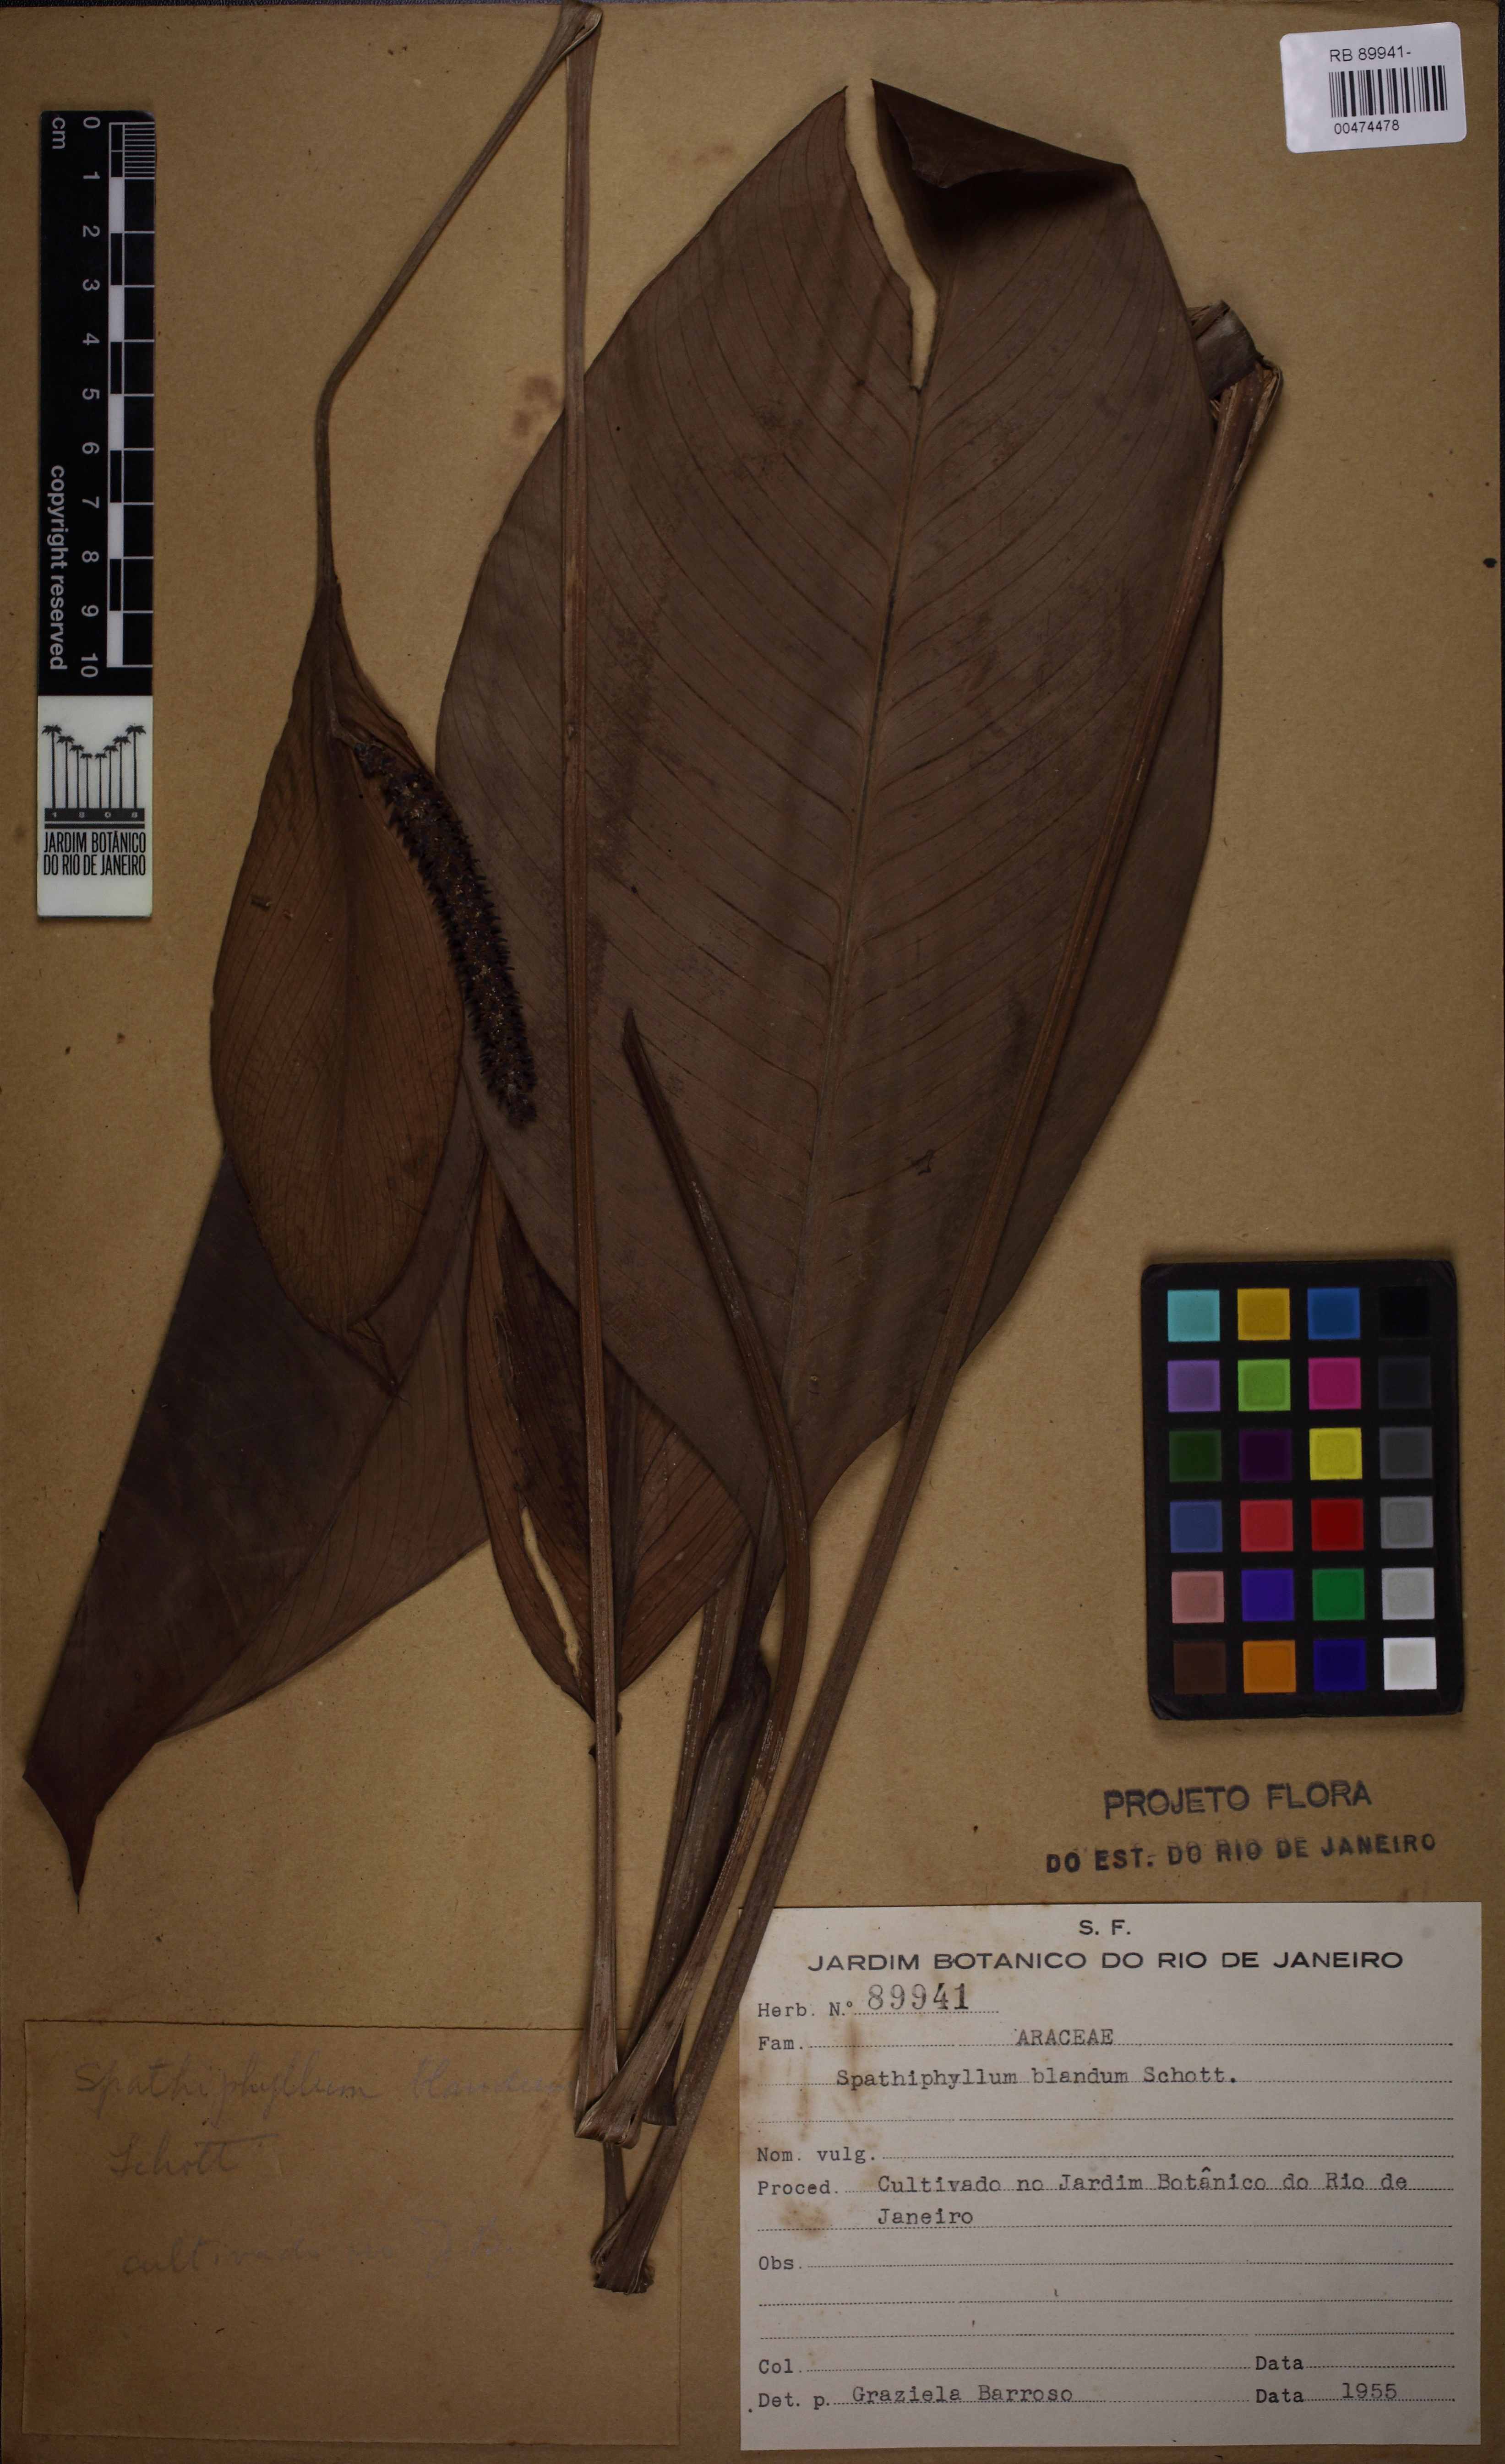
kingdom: Plantae
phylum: Tracheophyta
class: Liliopsida
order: Alismatales
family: Araceae
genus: Spathiphyllum
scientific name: Spathiphyllum blandum
